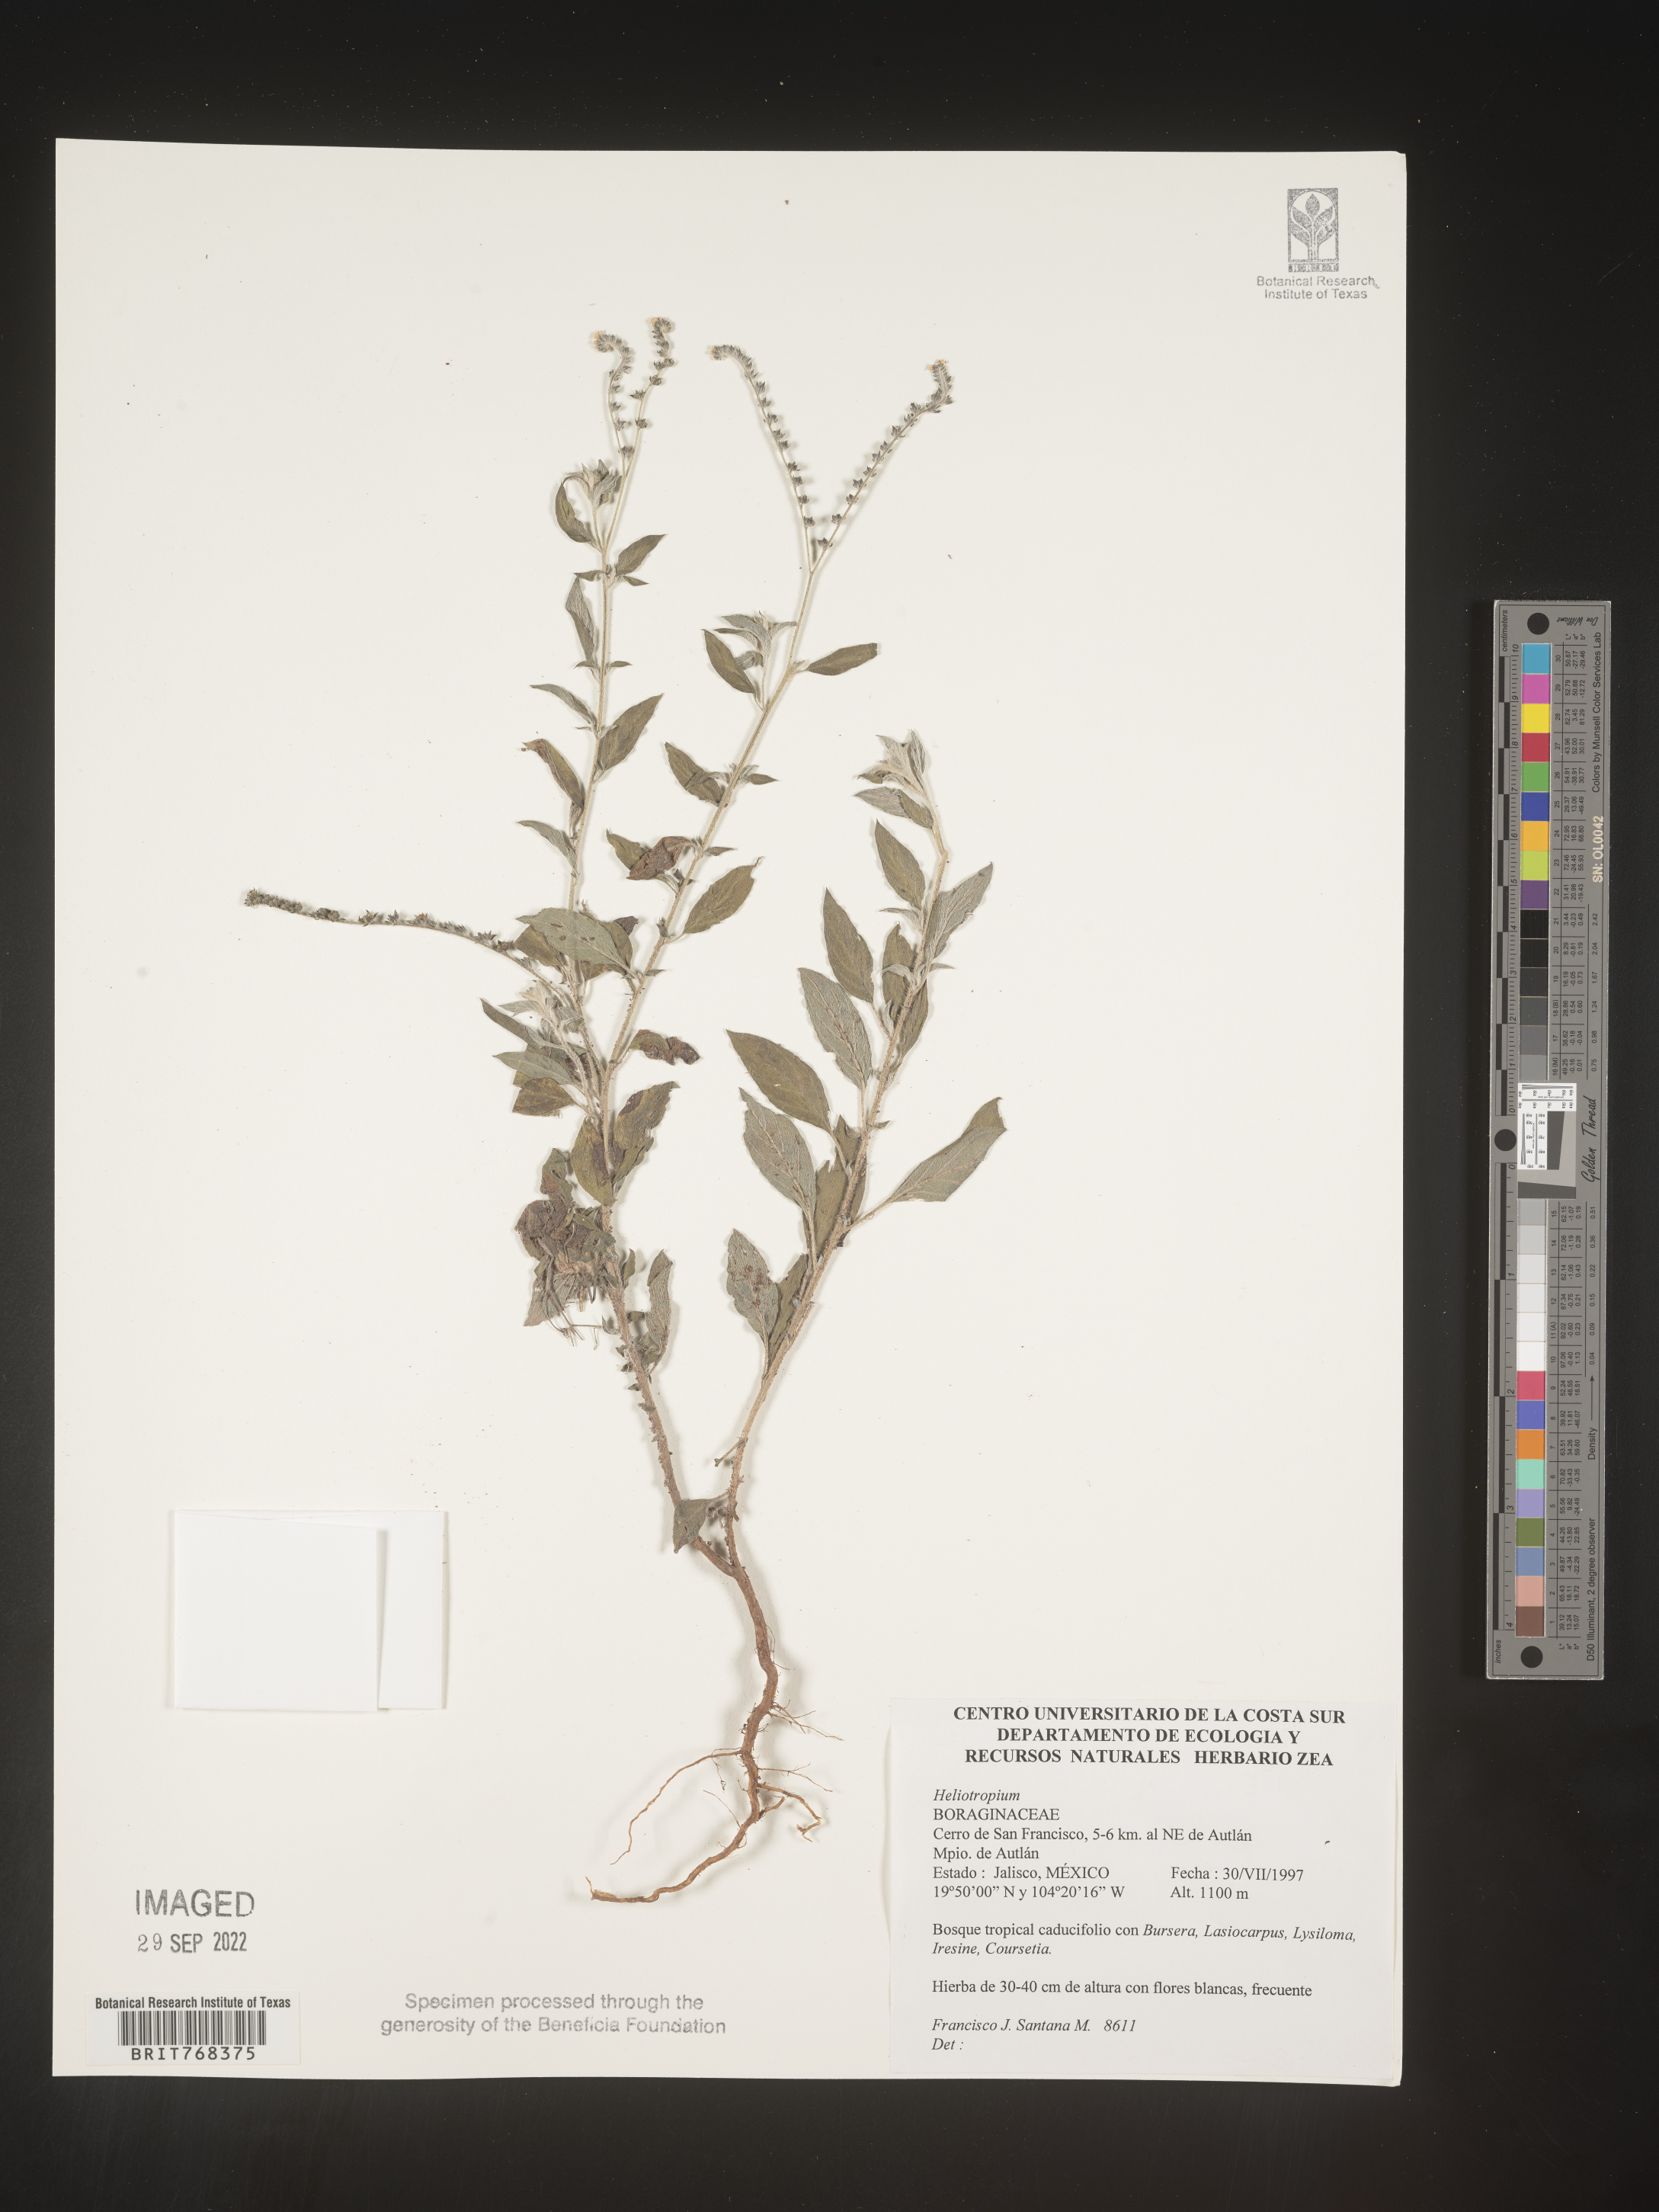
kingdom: Plantae
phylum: Tracheophyta
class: Magnoliopsida
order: Boraginales
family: Heliotropiaceae
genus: Heliotropium
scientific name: Heliotropium
